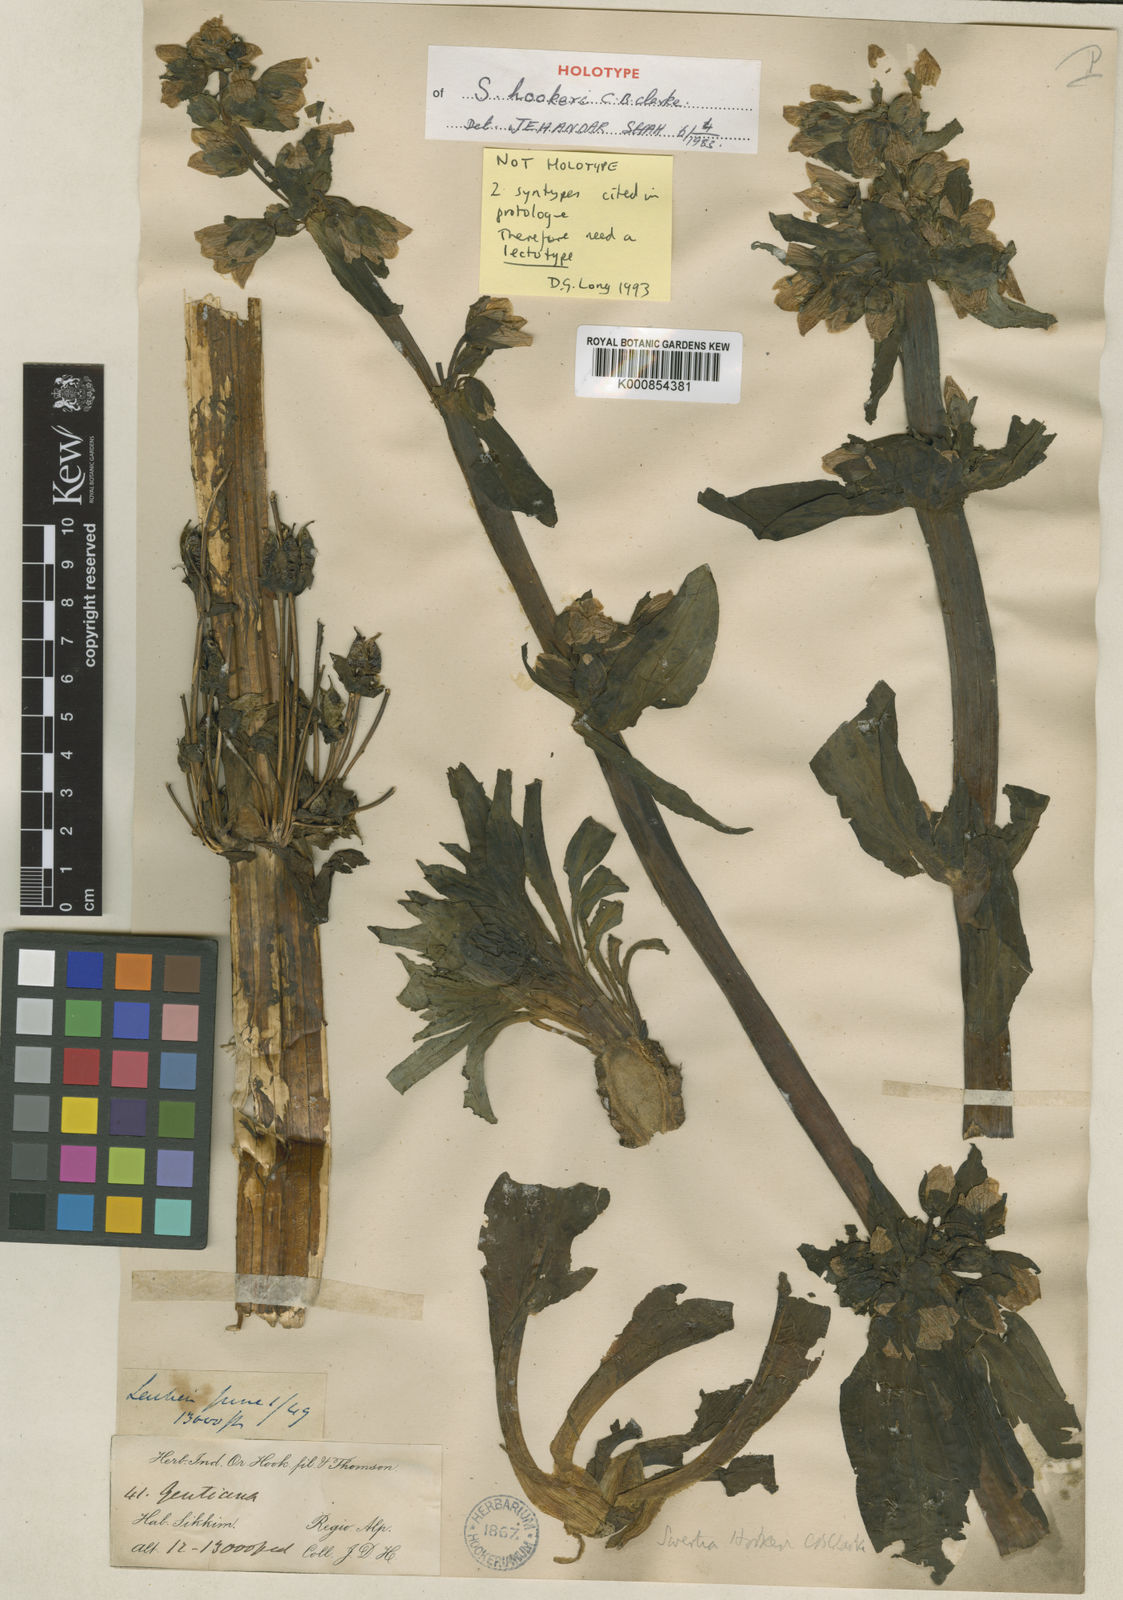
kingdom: Plantae
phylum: Tracheophyta
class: Magnoliopsida
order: Gentianales
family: Gentianaceae
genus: Swertia
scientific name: Swertia hookeri
